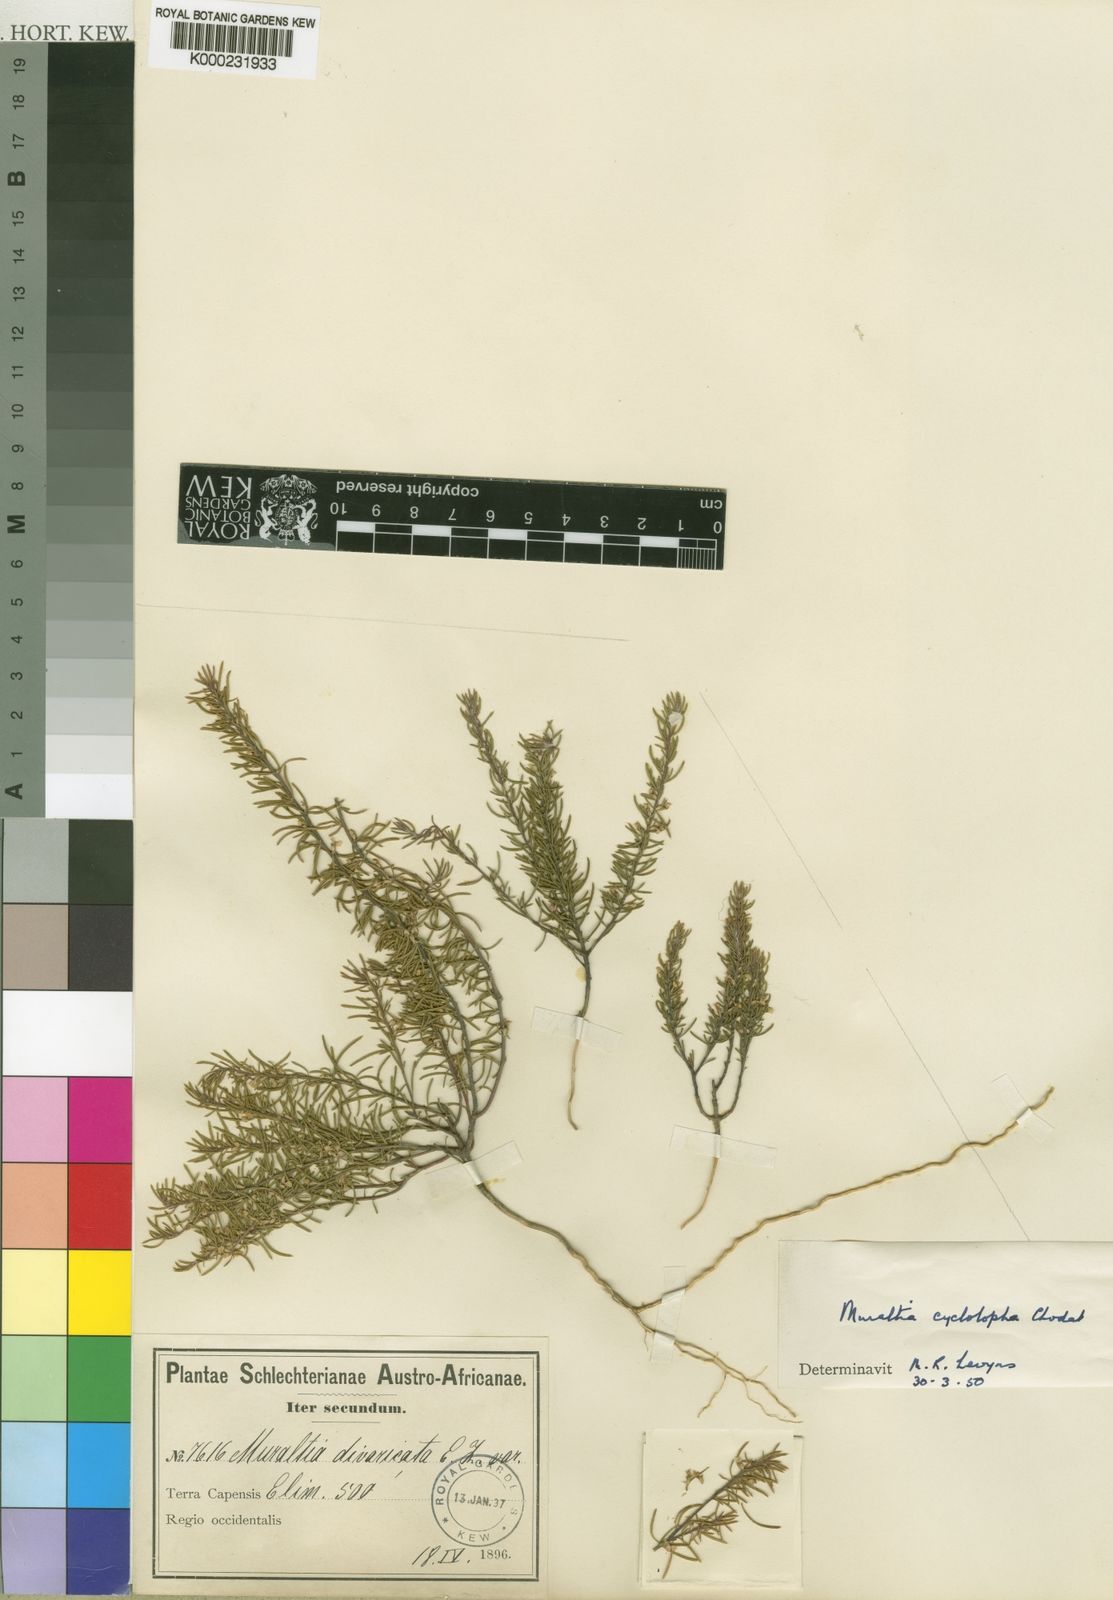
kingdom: Plantae
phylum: Tracheophyta
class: Magnoliopsida
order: Fabales
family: Polygalaceae
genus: Muraltia
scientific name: Muraltia cyclolopha
